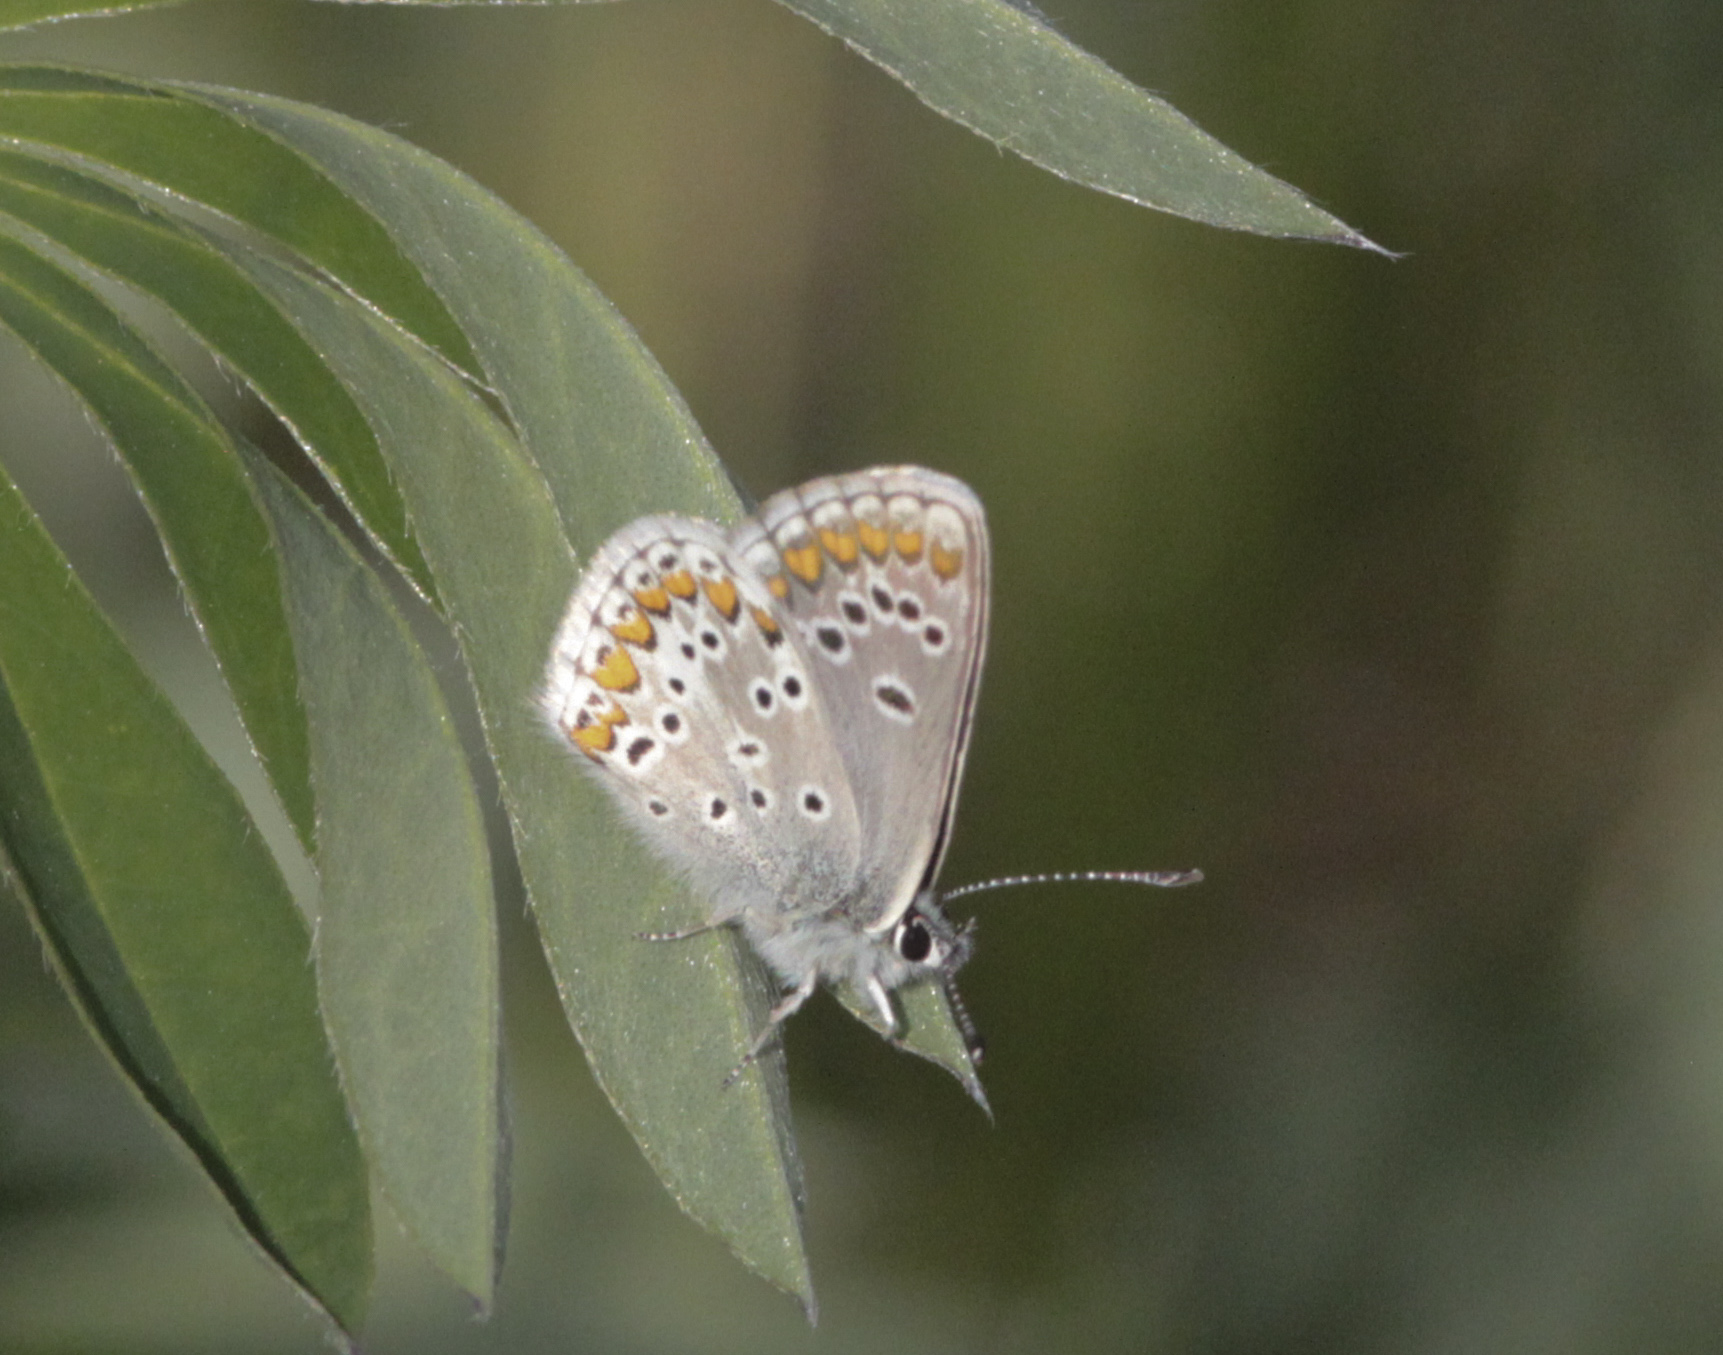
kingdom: Animalia
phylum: Arthropoda
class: Insecta
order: Lepidoptera
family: Lycaenidae
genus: Lycaeides
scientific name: Lycaeides idas
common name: Northern blue
